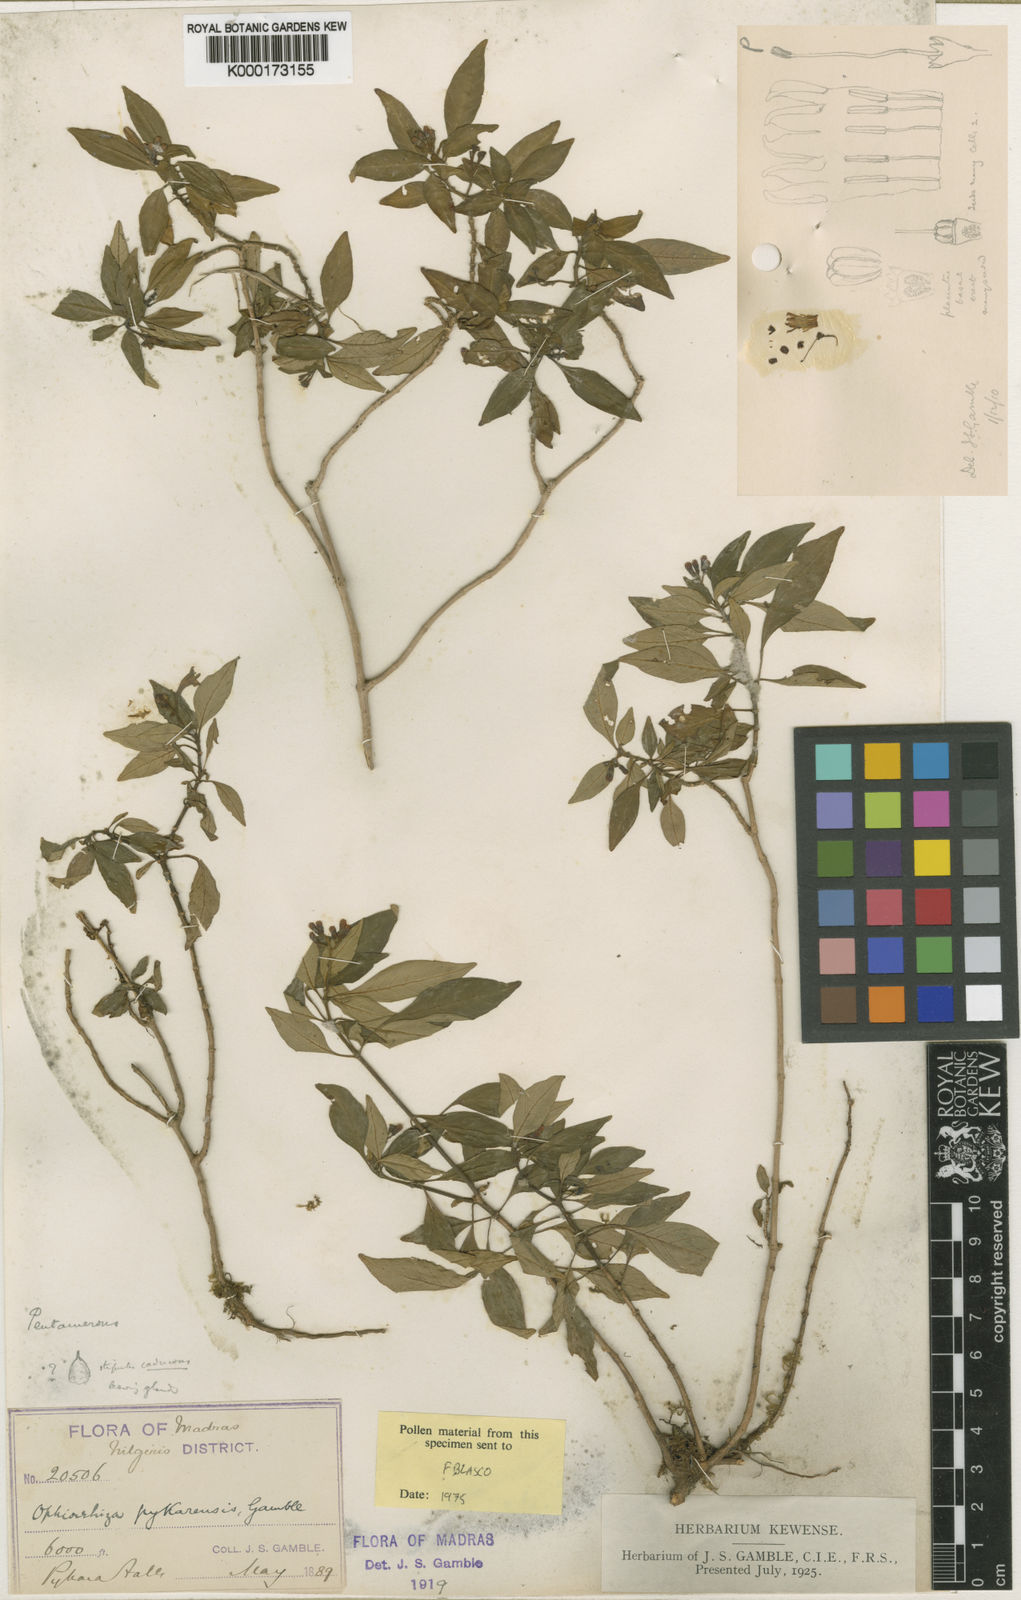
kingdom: Plantae
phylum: Tracheophyta
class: Magnoliopsida
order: Gentianales
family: Rubiaceae
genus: Ophiorrhiza
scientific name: Ophiorrhiza pykarensis
